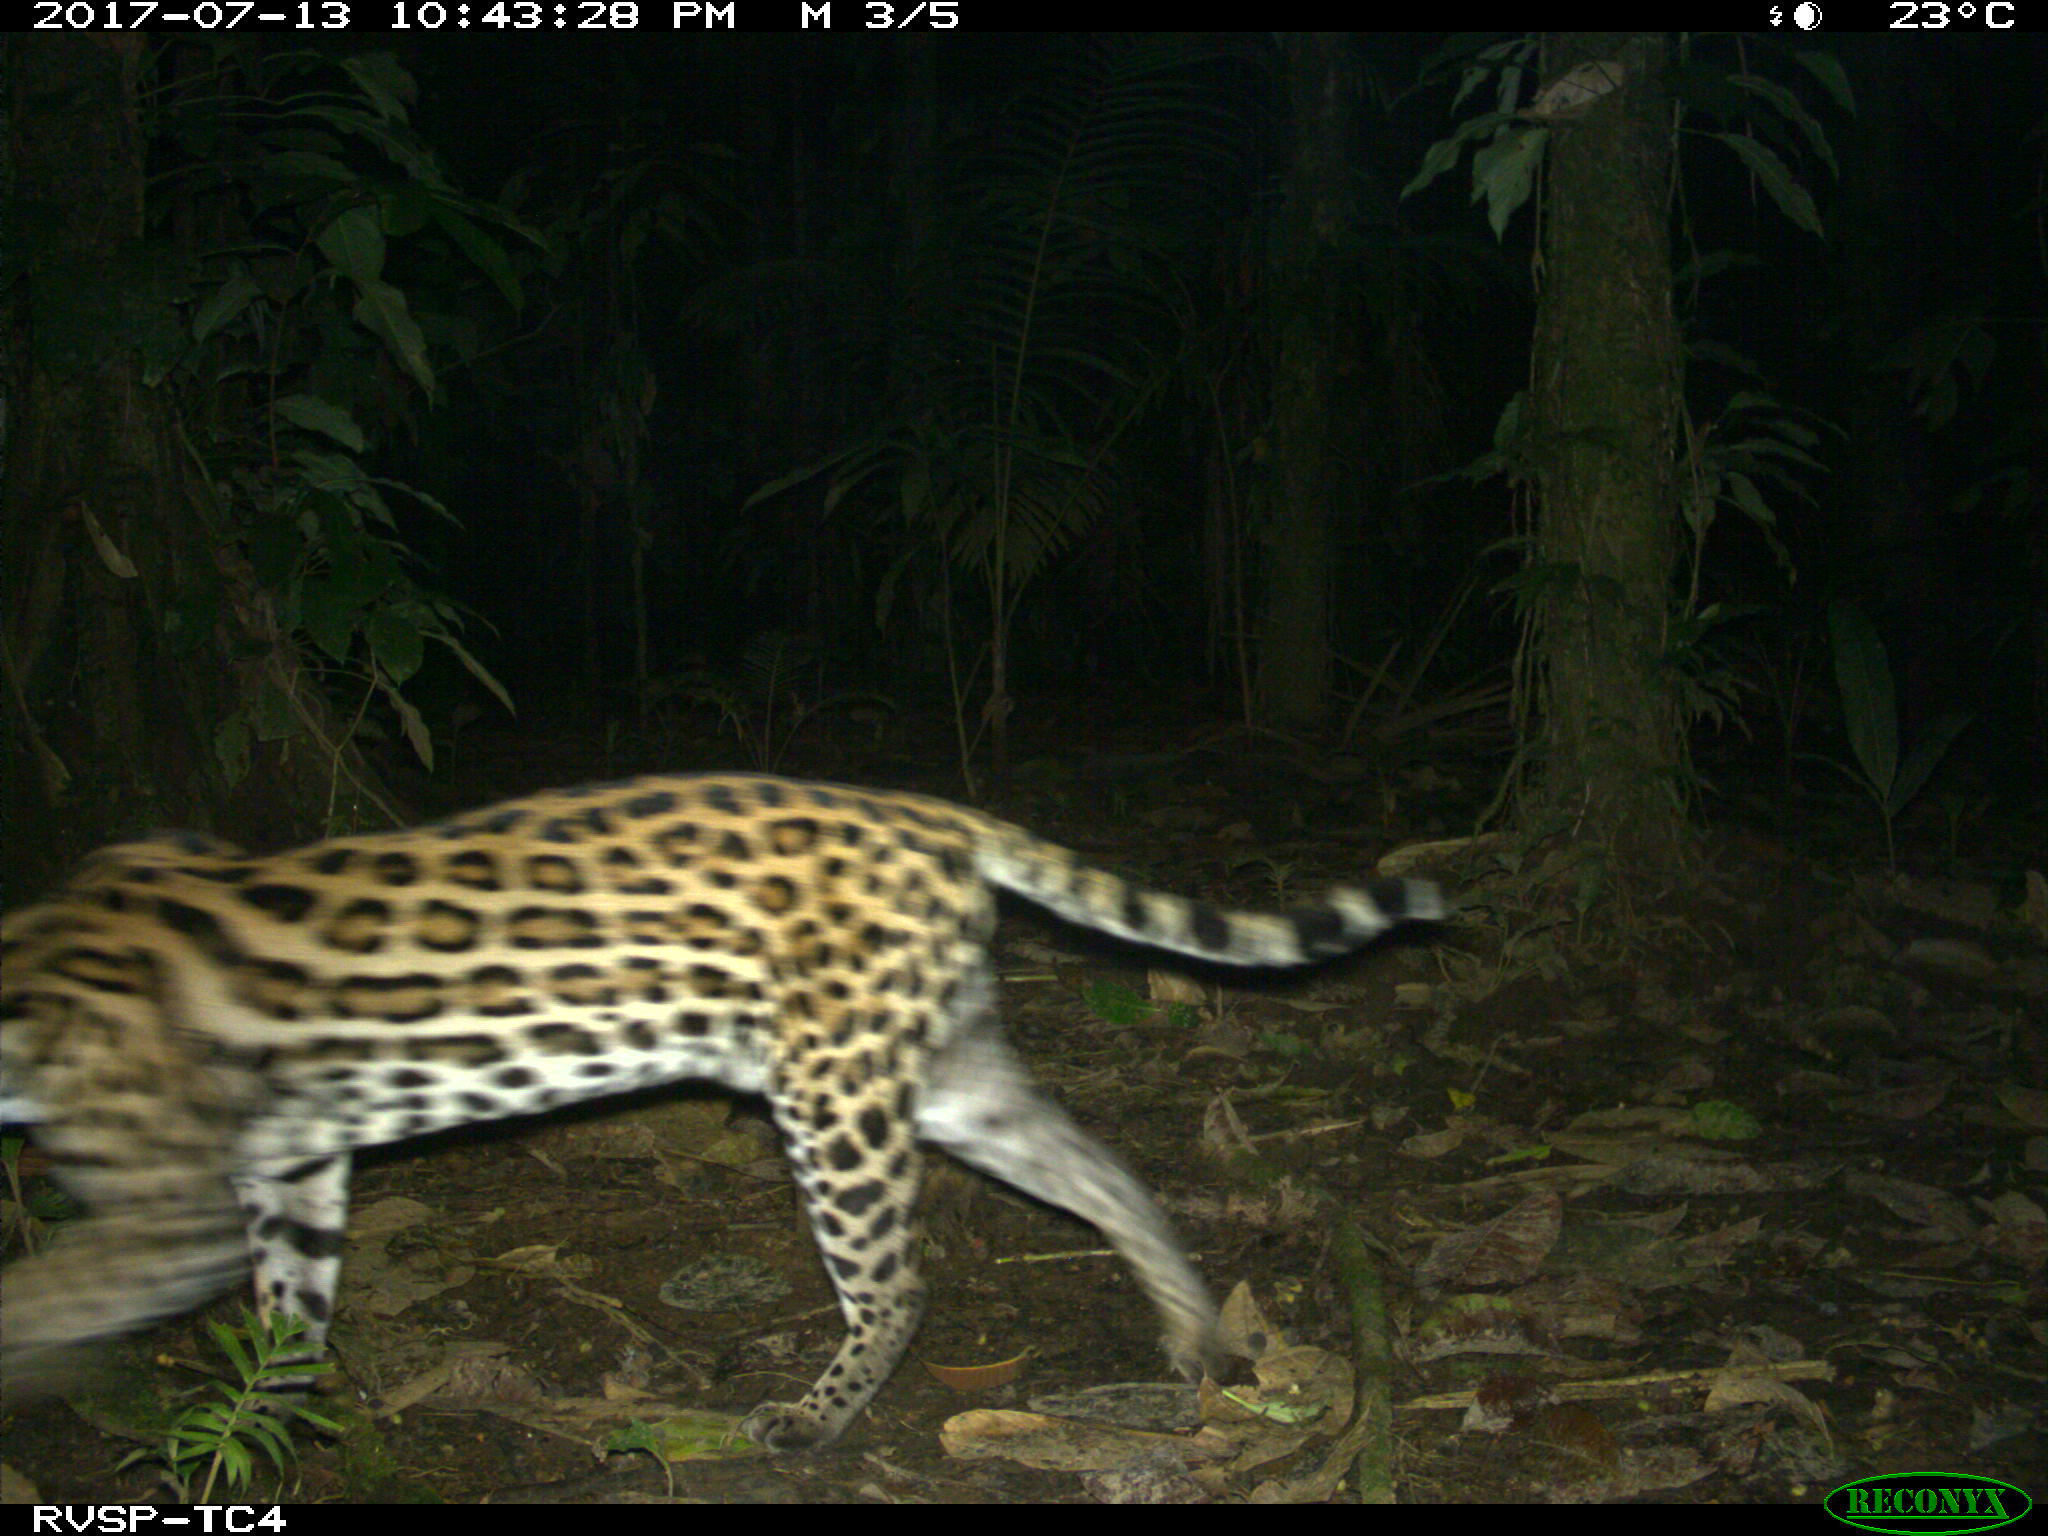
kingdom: Animalia
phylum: Chordata
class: Mammalia
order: Carnivora
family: Felidae
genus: Leopardus
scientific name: Leopardus pardalis
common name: Ocelot
